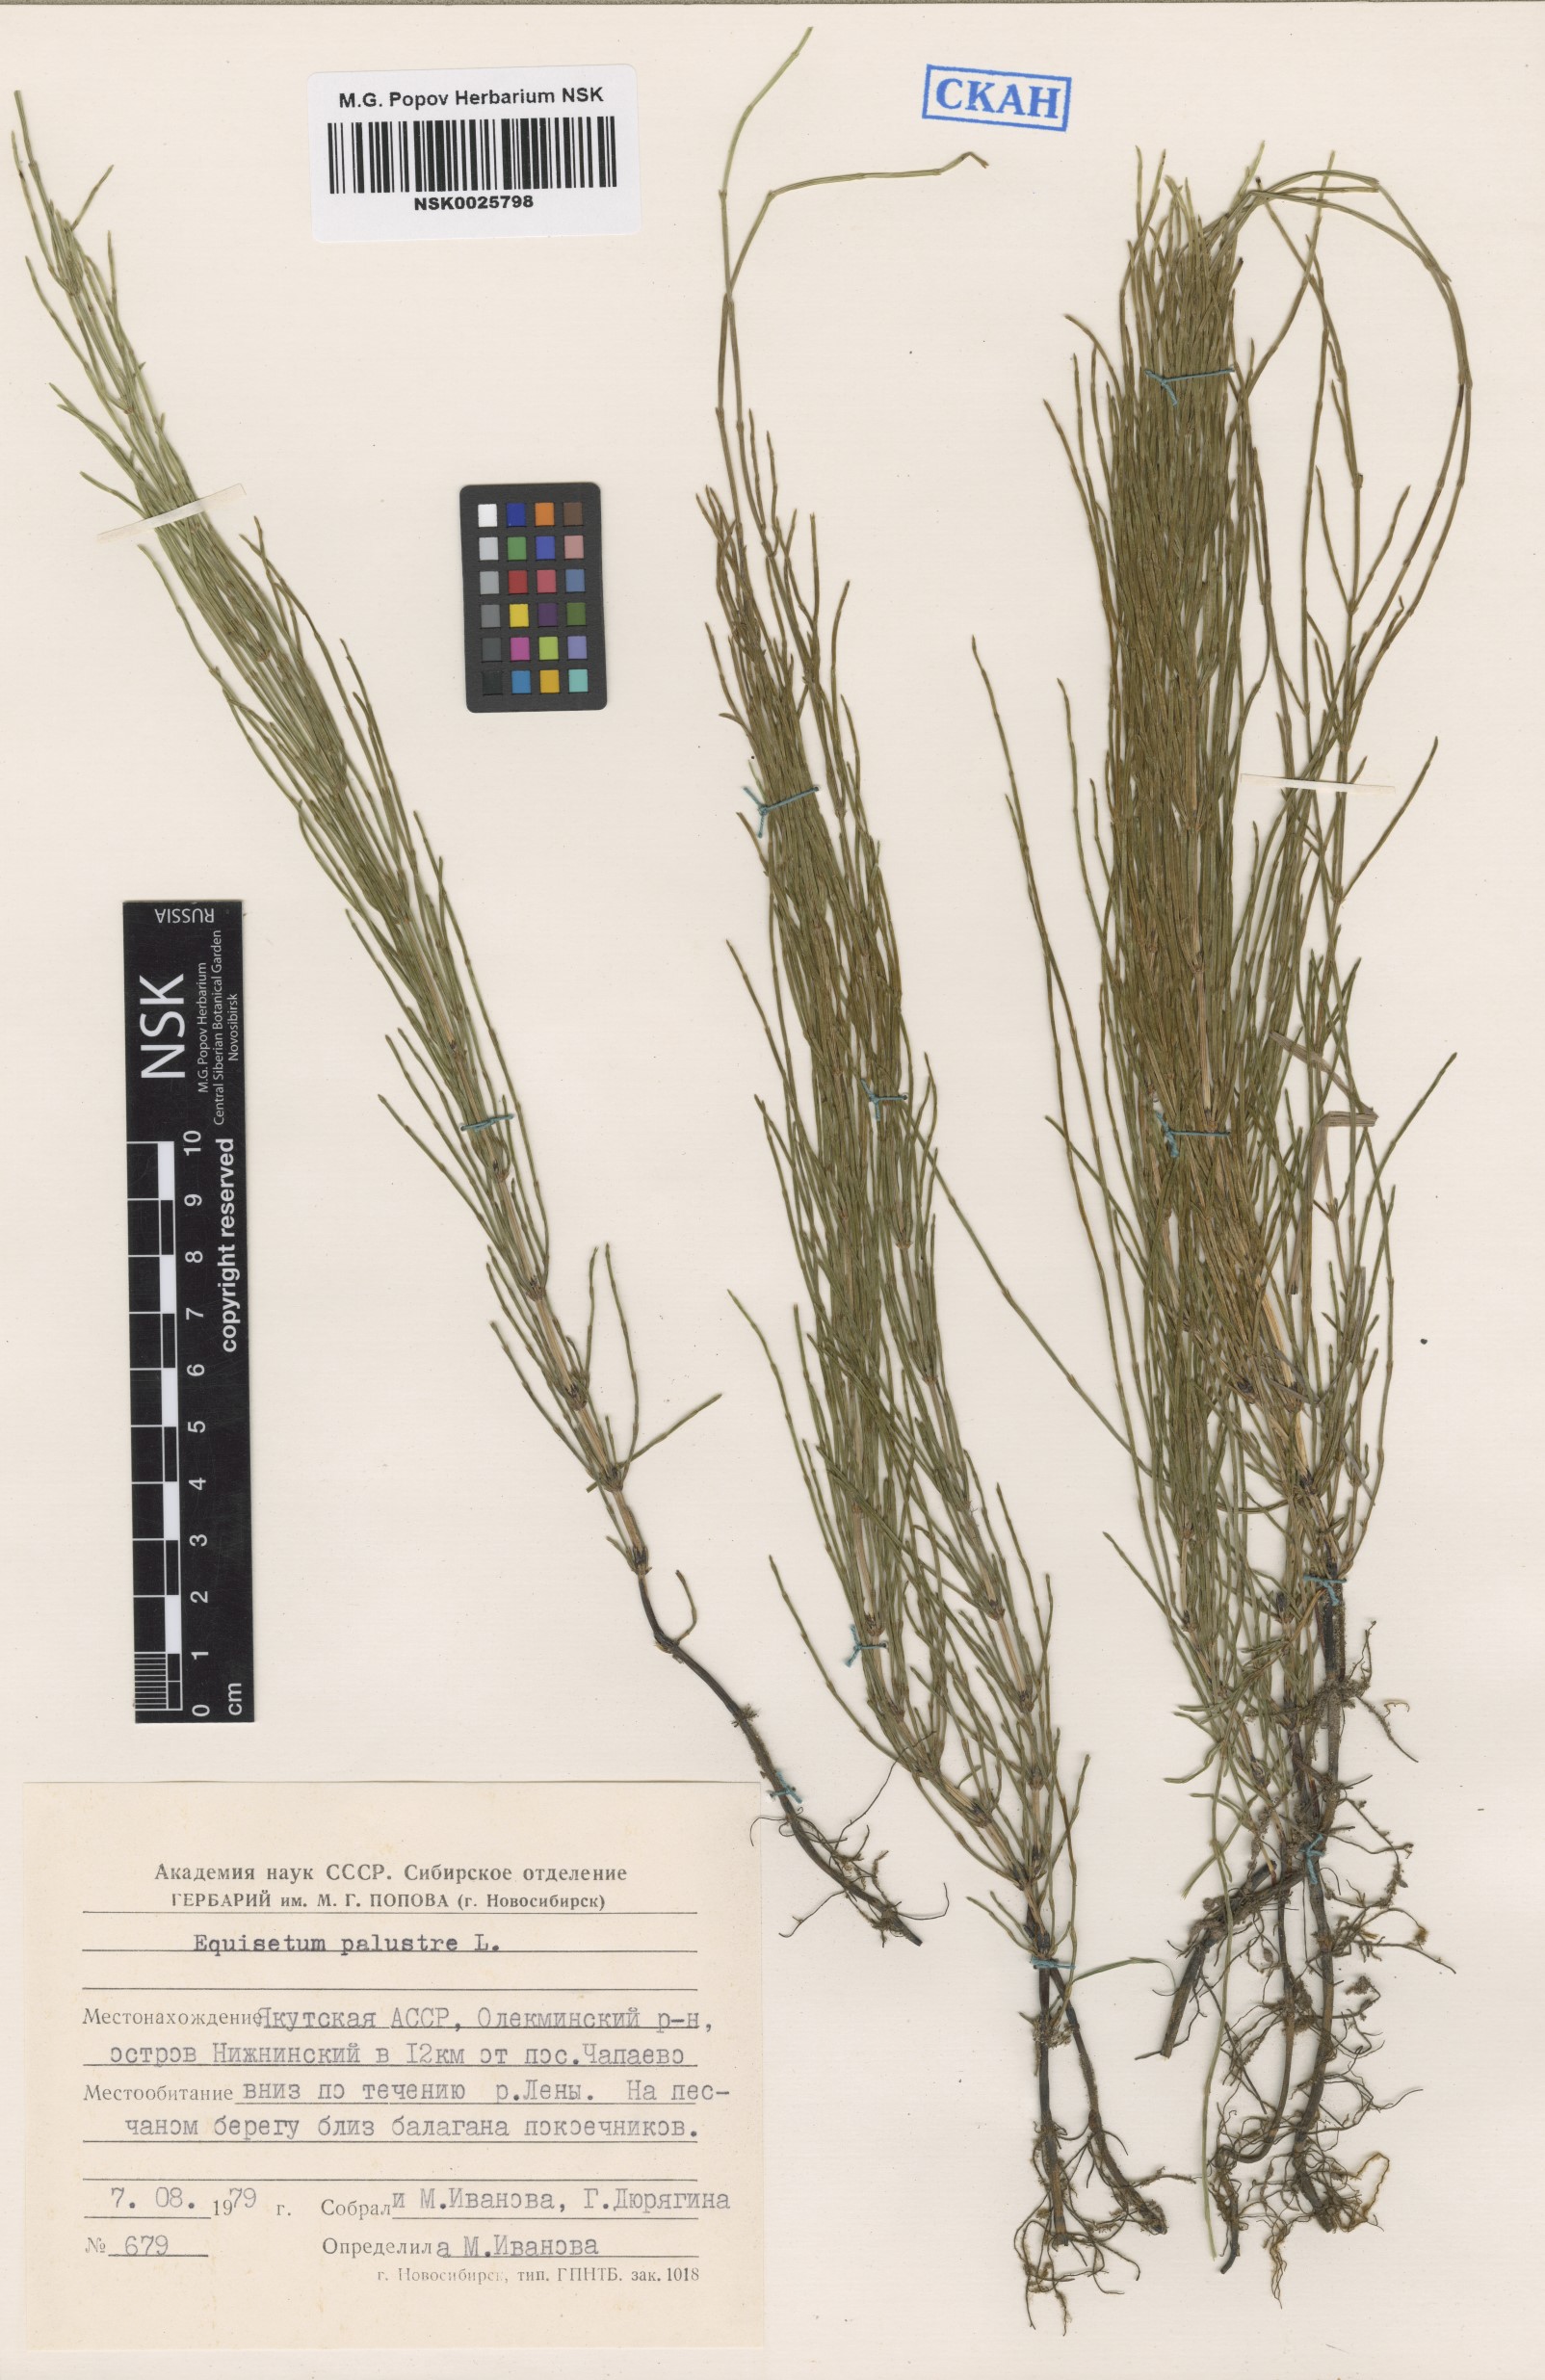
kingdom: Plantae
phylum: Tracheophyta
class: Polypodiopsida
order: Equisetales
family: Equisetaceae
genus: Equisetum
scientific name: Equisetum palustre
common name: Marsh horsetail
